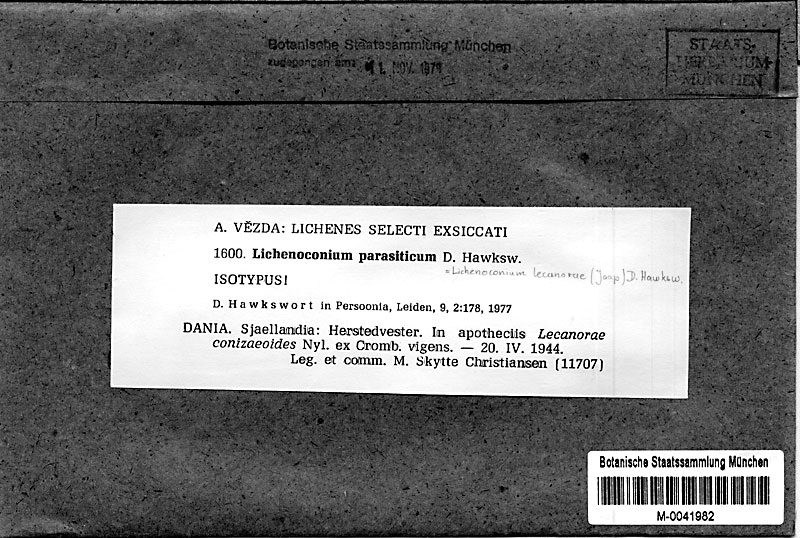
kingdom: Fungi
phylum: Ascomycota
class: Lecanoromycetes
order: Lecanorales
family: Lecanoraceae
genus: Straminella
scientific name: Straminella conizaeoides
